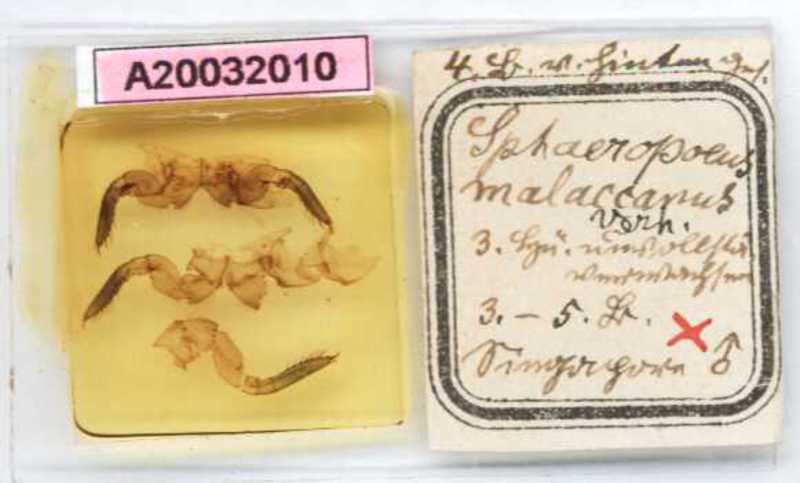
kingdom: Animalia
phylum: Arthropoda
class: Diplopoda
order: Sphaerotheriida
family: Zephroniidae
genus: Sphaeropoeus
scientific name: Sphaeropoeus malaccanus
